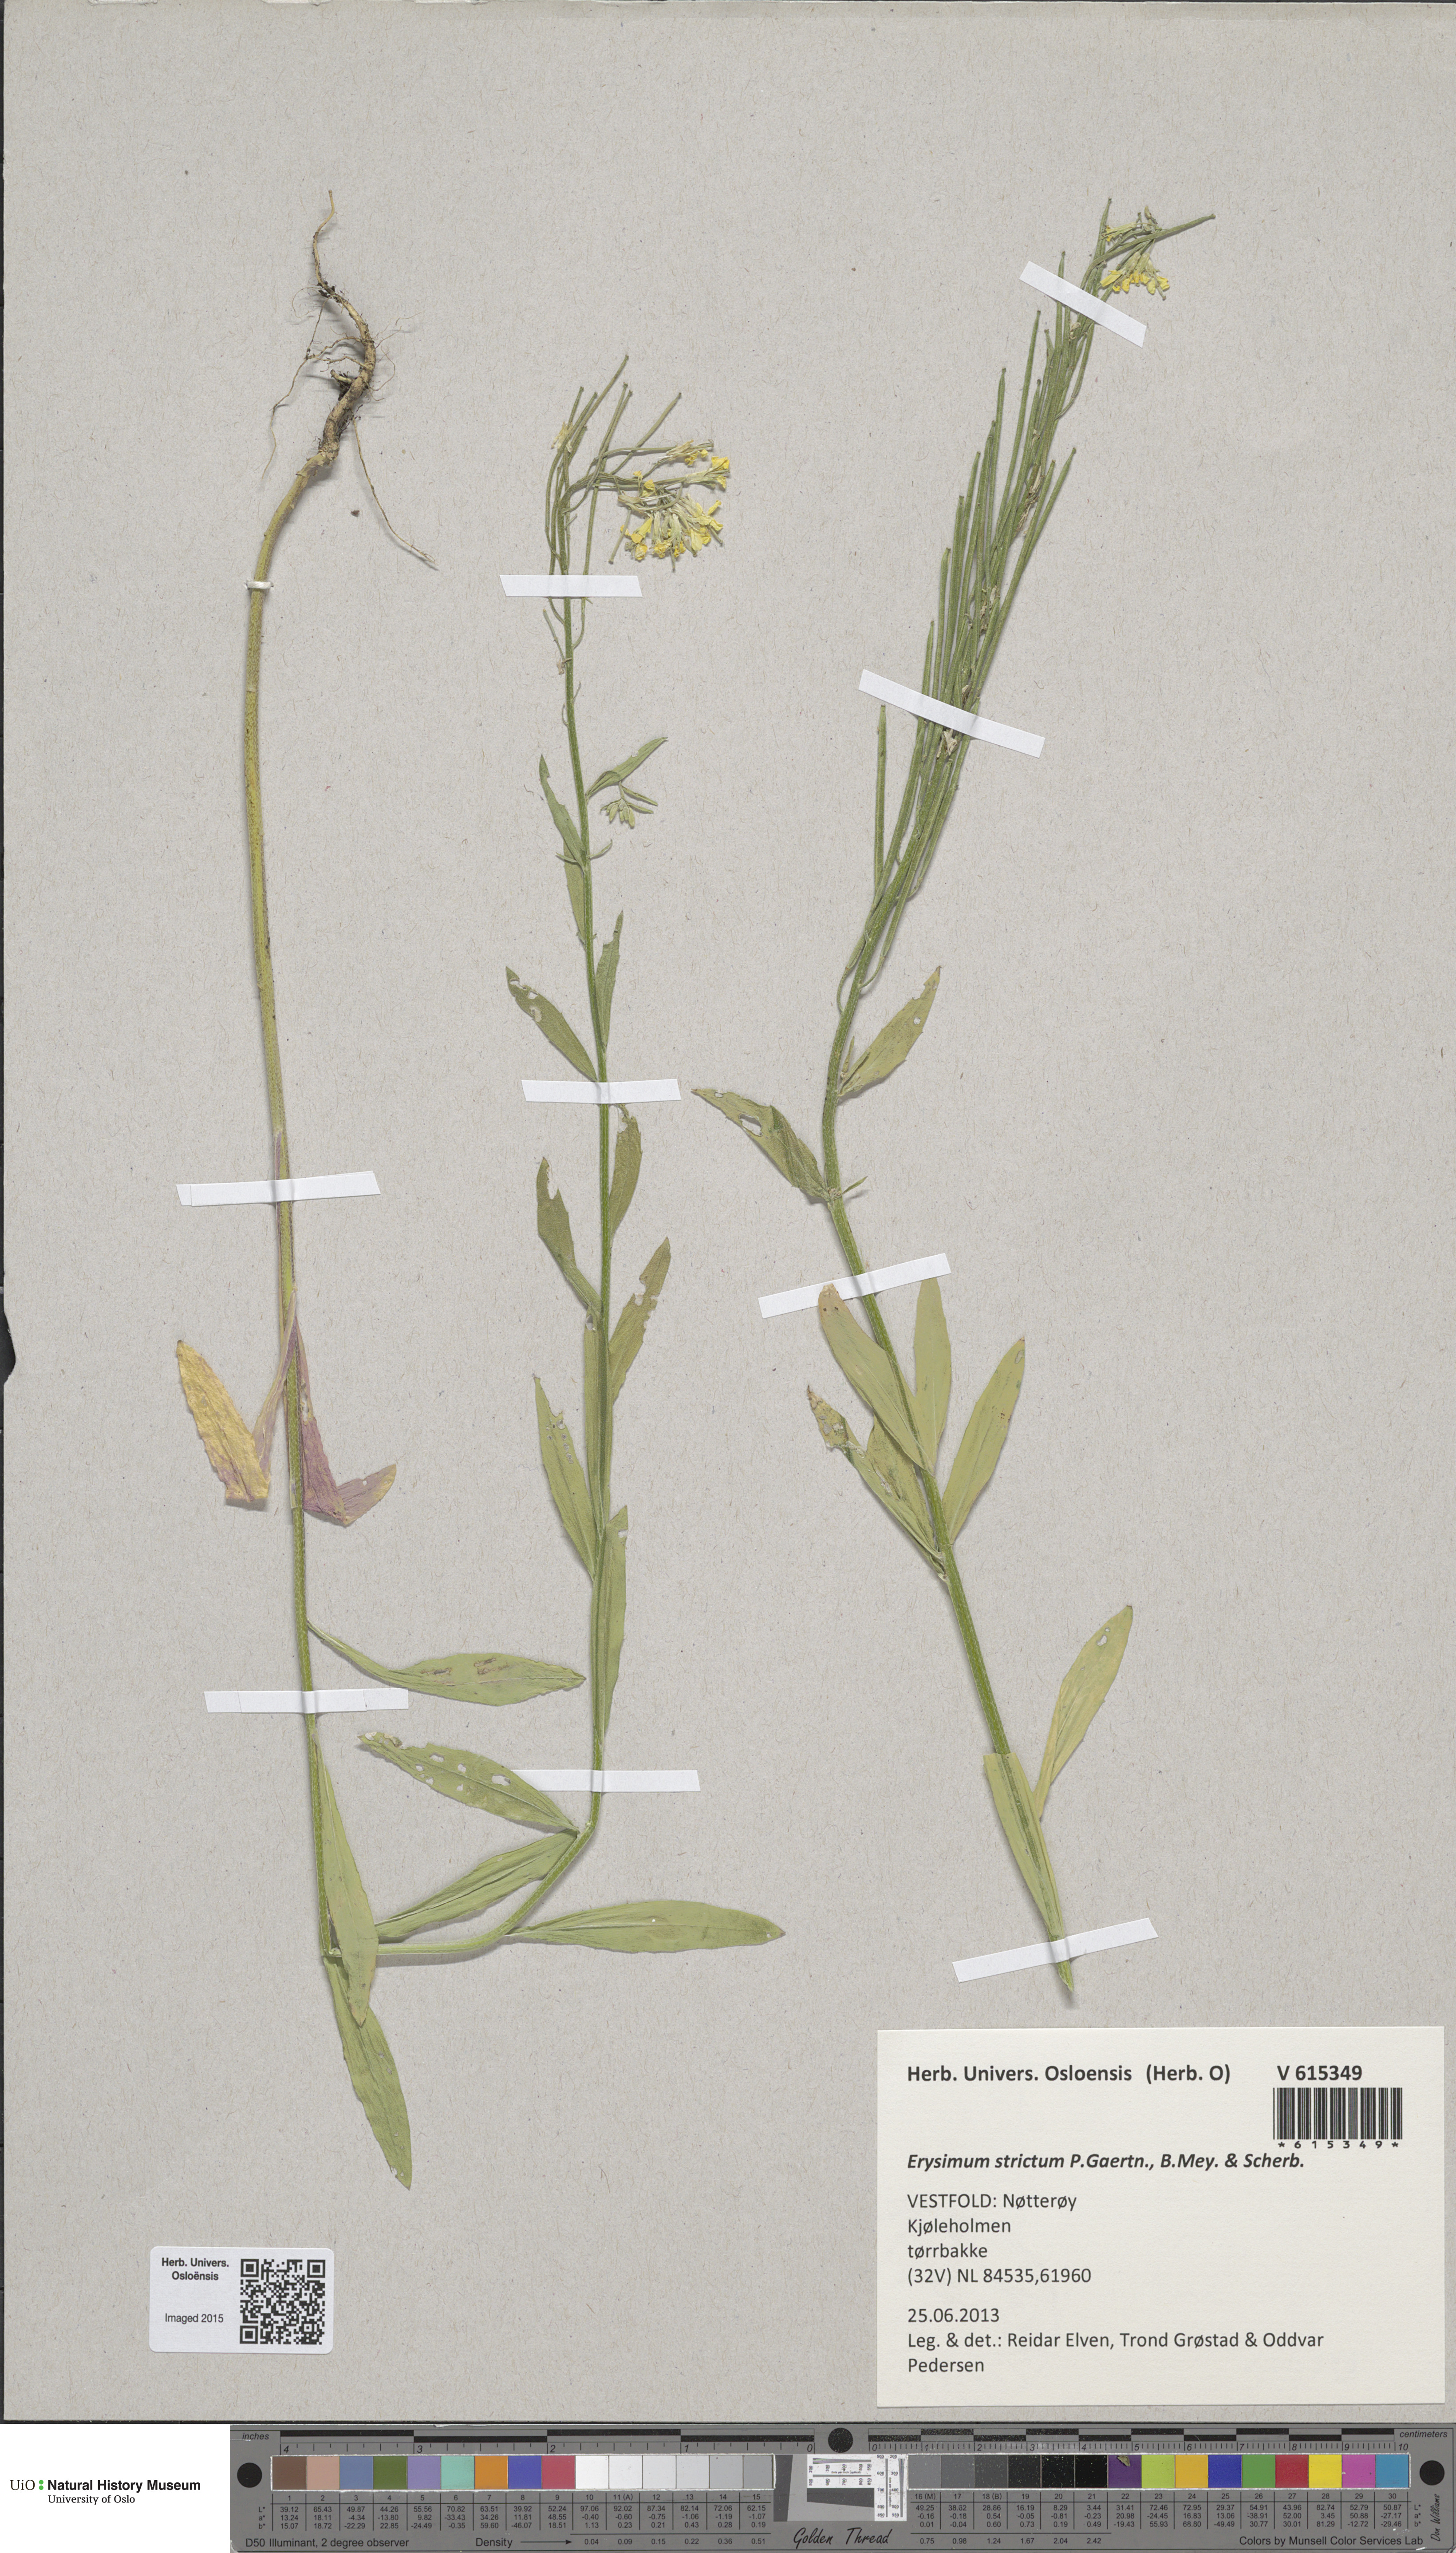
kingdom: Plantae
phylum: Tracheophyta
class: Magnoliopsida
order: Brassicales
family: Brassicaceae
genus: Erysimum
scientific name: Erysimum virgatum
